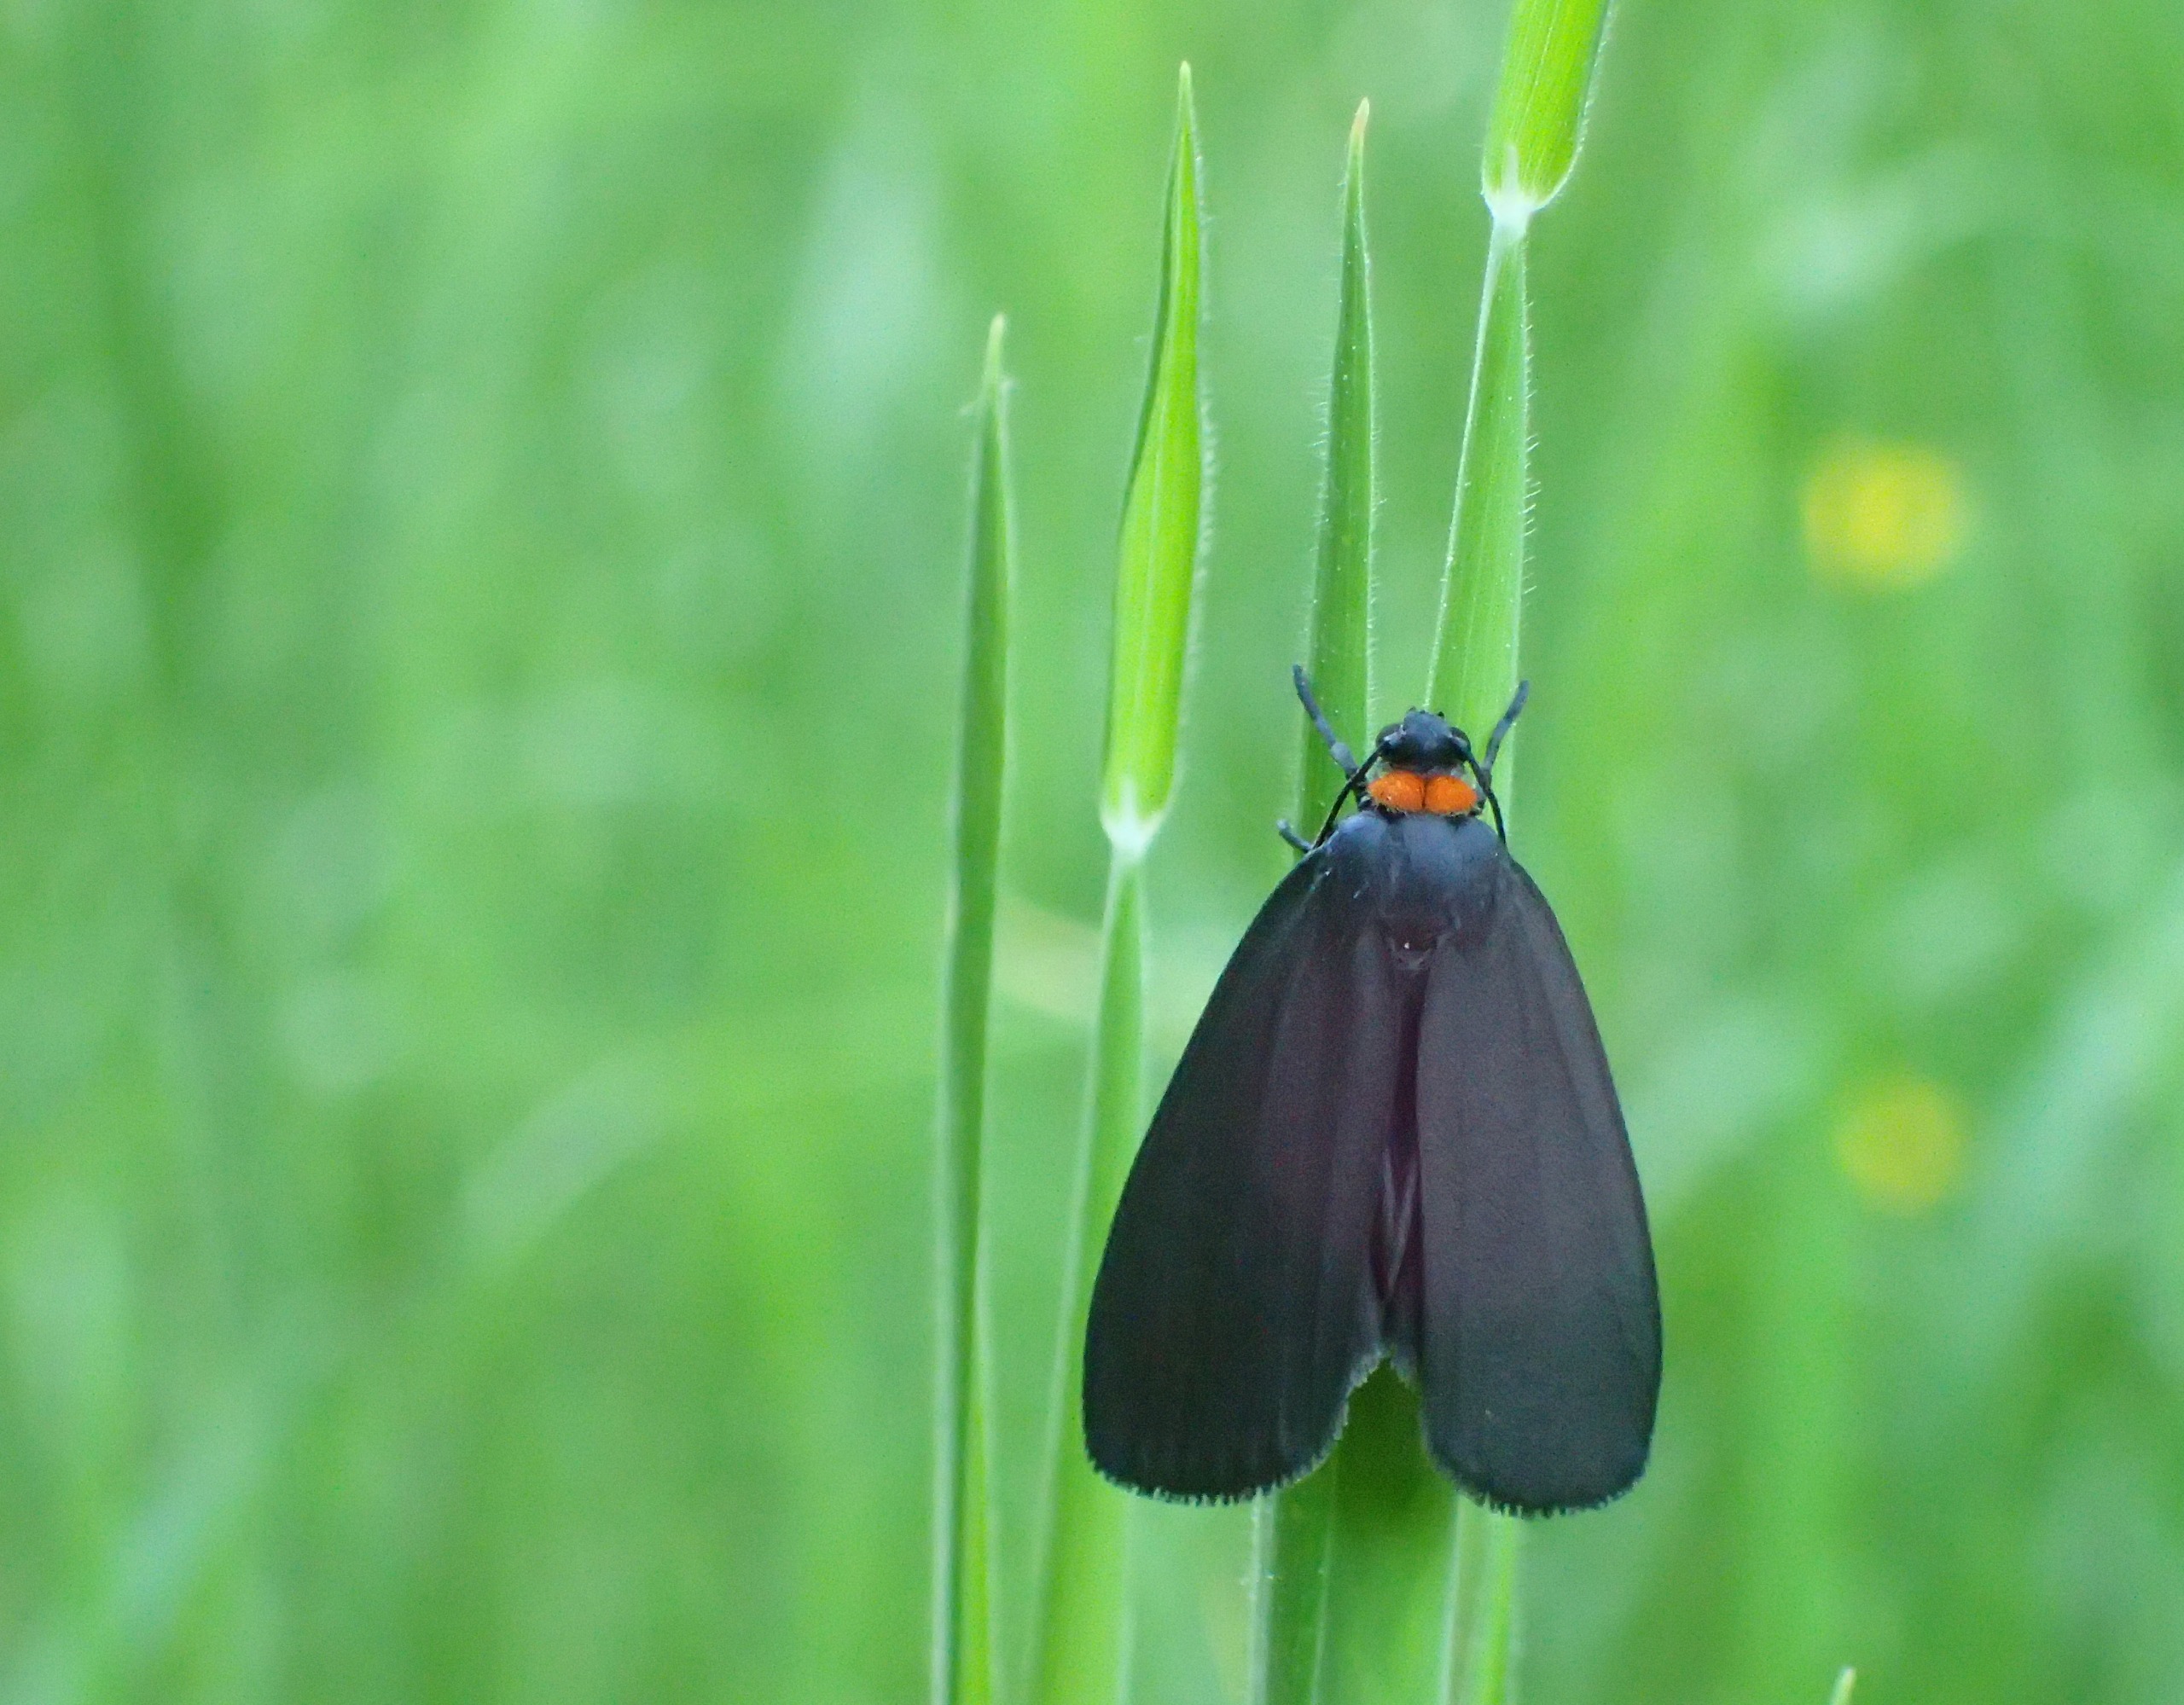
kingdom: Animalia
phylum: Arthropoda
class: Insecta
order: Lepidoptera
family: Erebidae
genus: Atolmis
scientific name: Atolmis rubricollis
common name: Blodnakke
